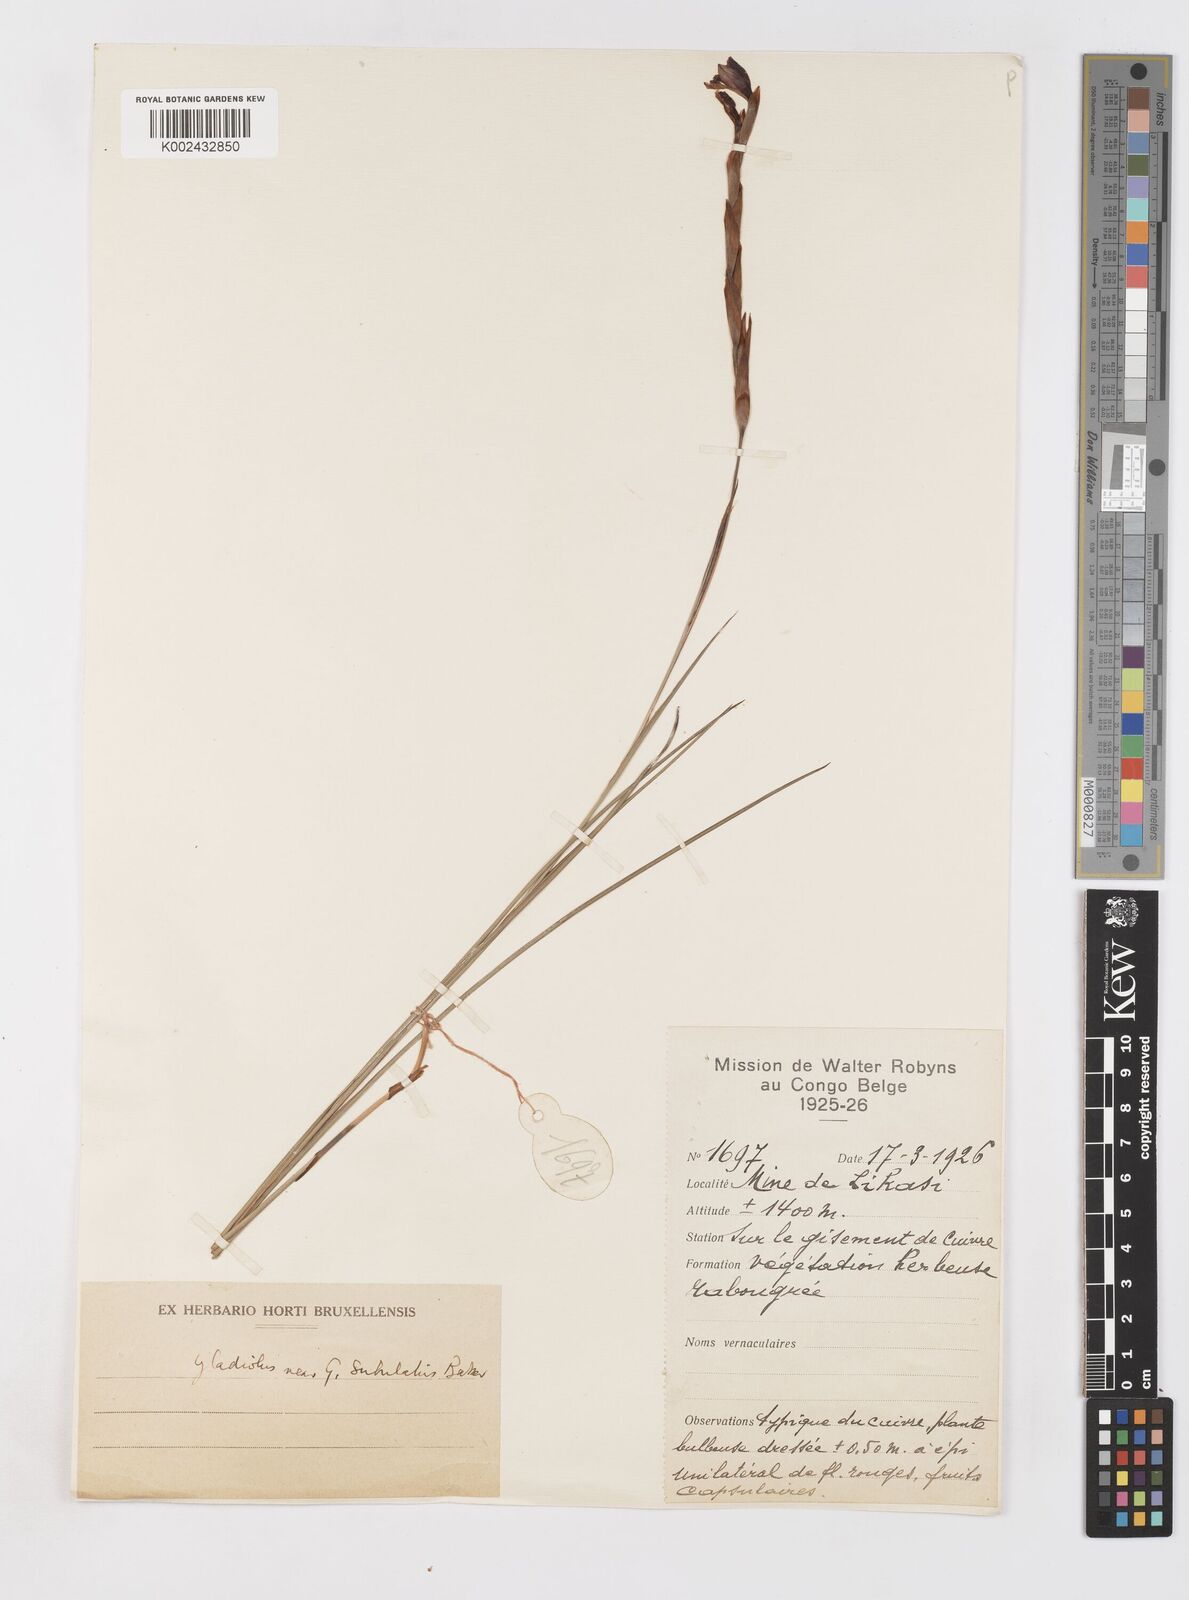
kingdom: Plantae
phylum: Tracheophyta
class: Liliopsida
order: Asparagales
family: Iridaceae
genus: Gladiolus
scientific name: Gladiolus gregarius
